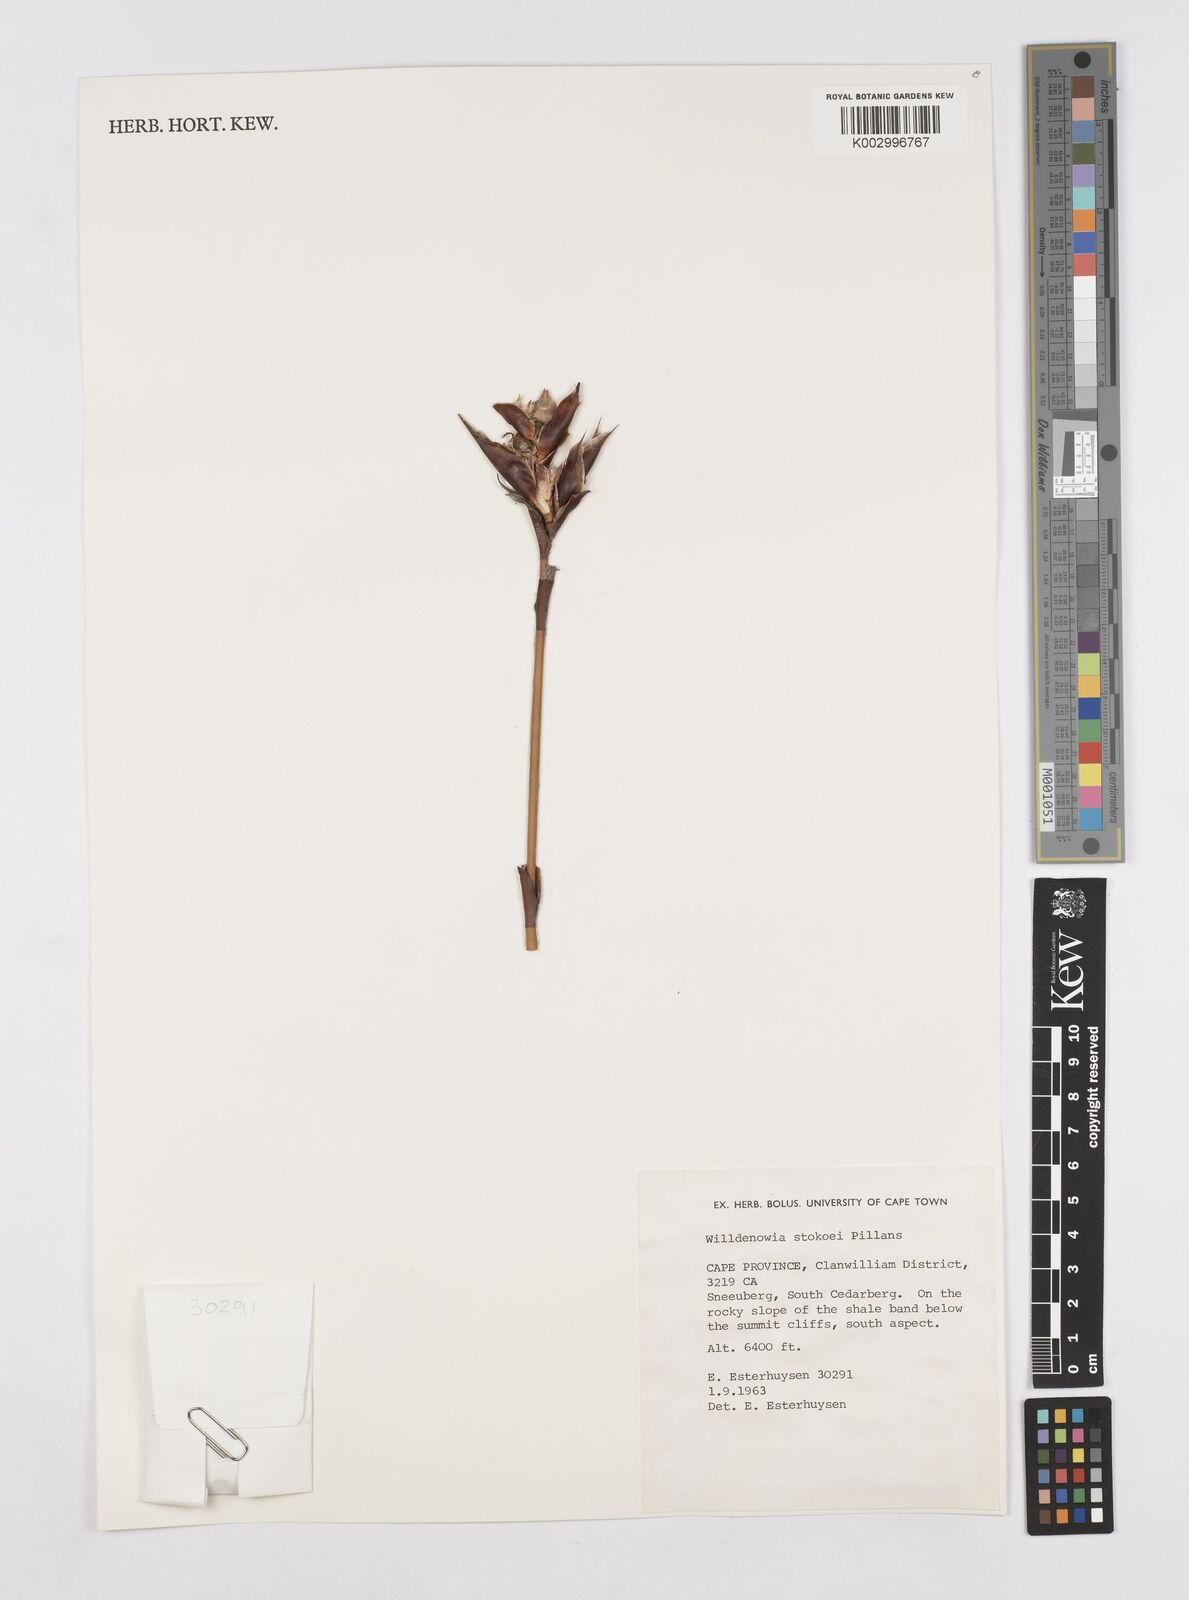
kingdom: Plantae
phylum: Tracheophyta
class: Liliopsida
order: Poales
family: Restionaceae
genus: Willdenowia
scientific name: Willdenowia stokoei
